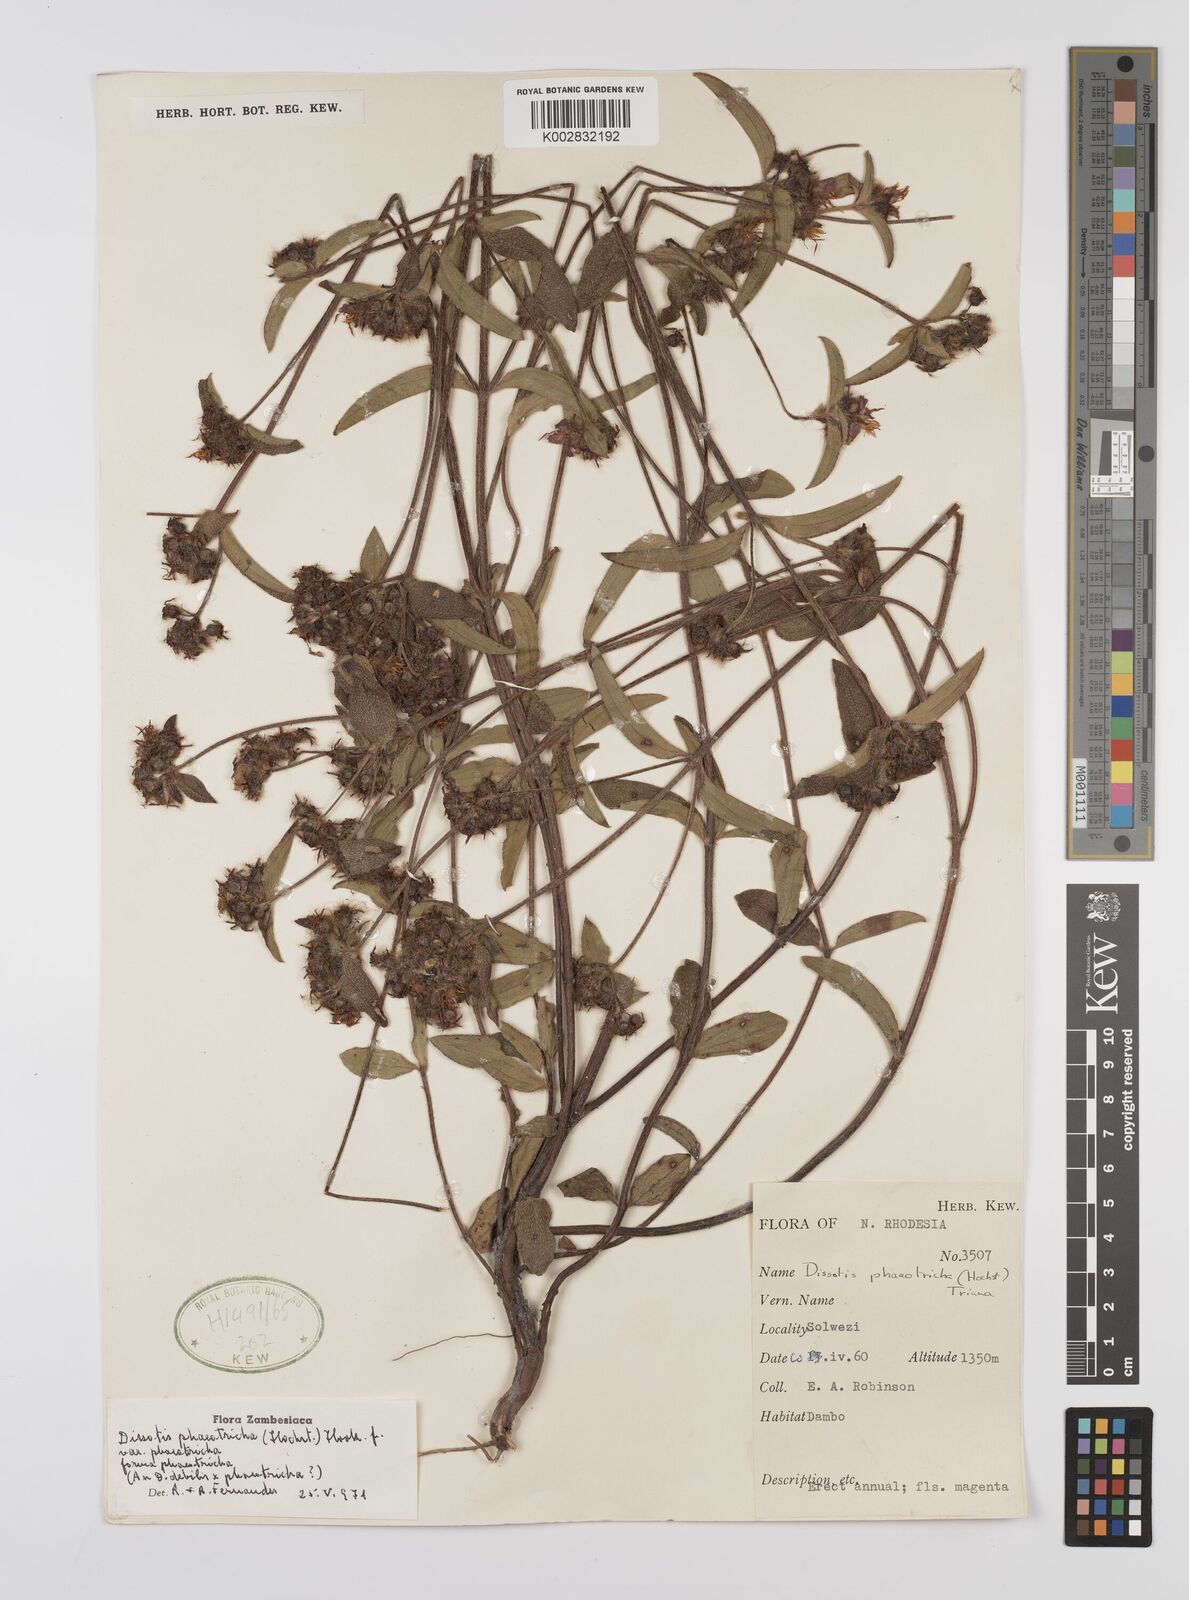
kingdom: Plantae
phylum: Tracheophyta
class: Magnoliopsida
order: Myrtales
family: Melastomataceae
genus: Antherotoma
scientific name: Antherotoma phaeotricha
